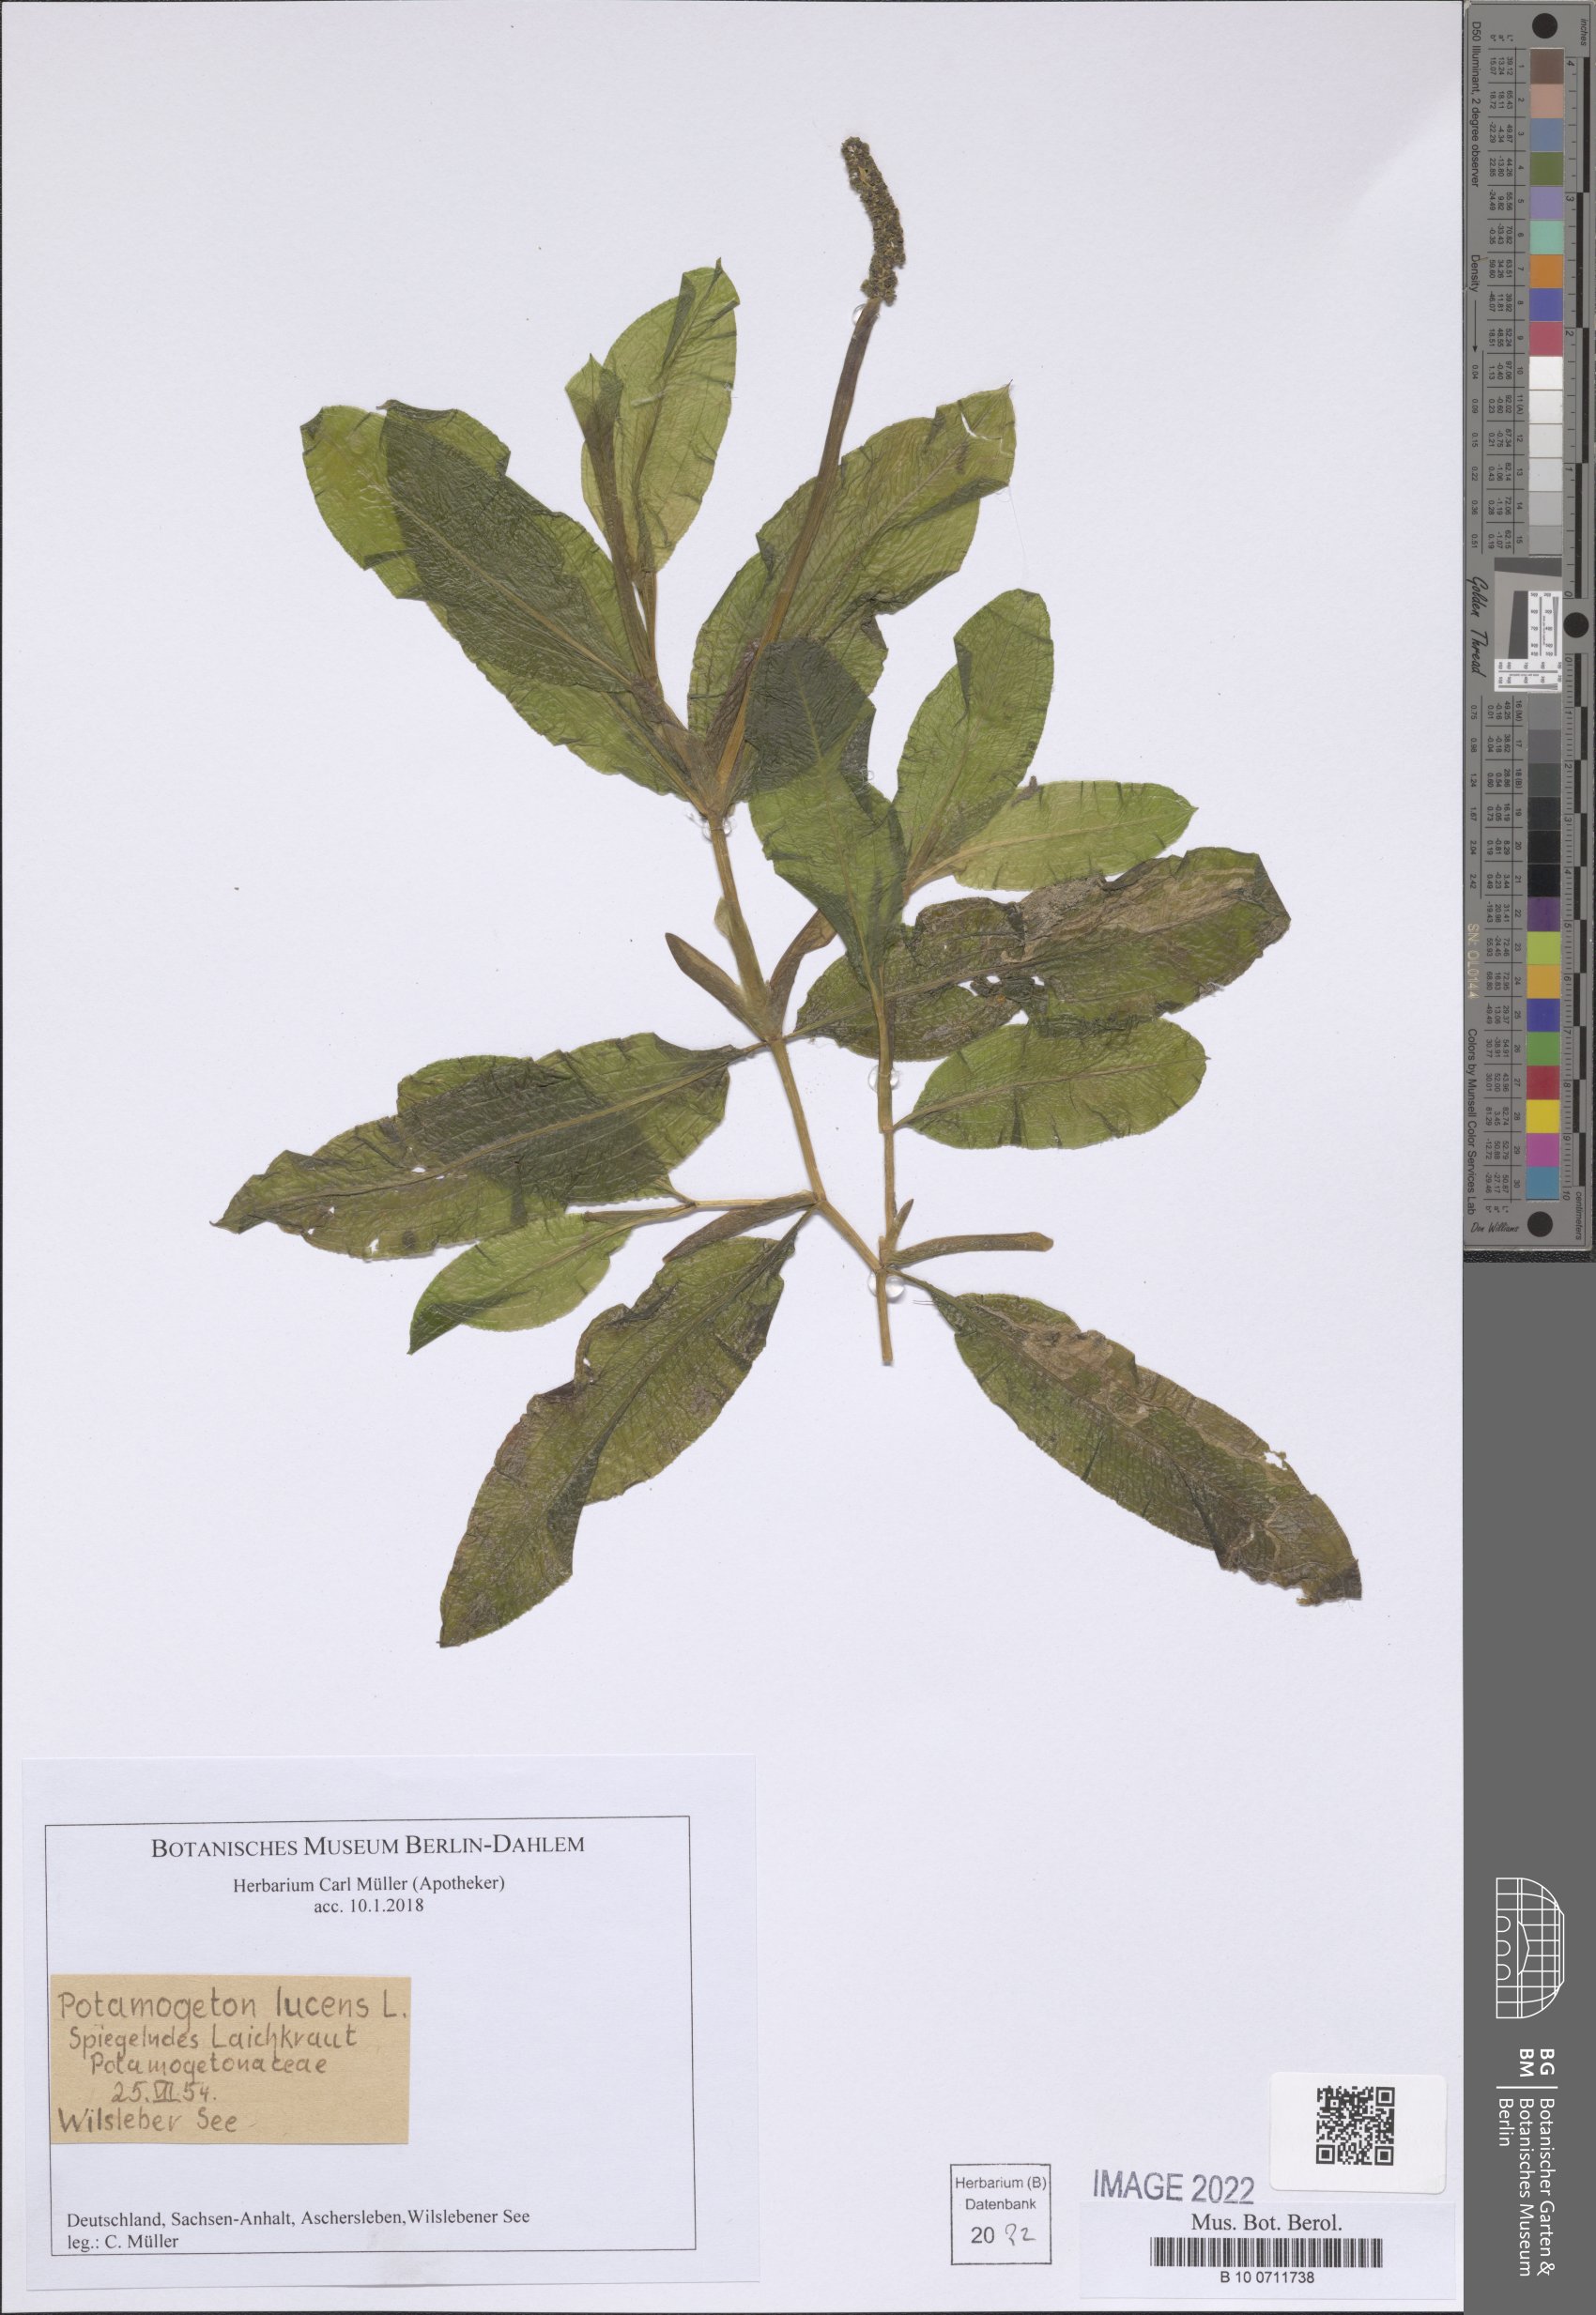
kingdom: Plantae
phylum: Tracheophyta
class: Liliopsida
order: Alismatales
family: Potamogetonaceae
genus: Potamogeton
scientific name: Potamogeton lucens
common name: Shining pondweed
